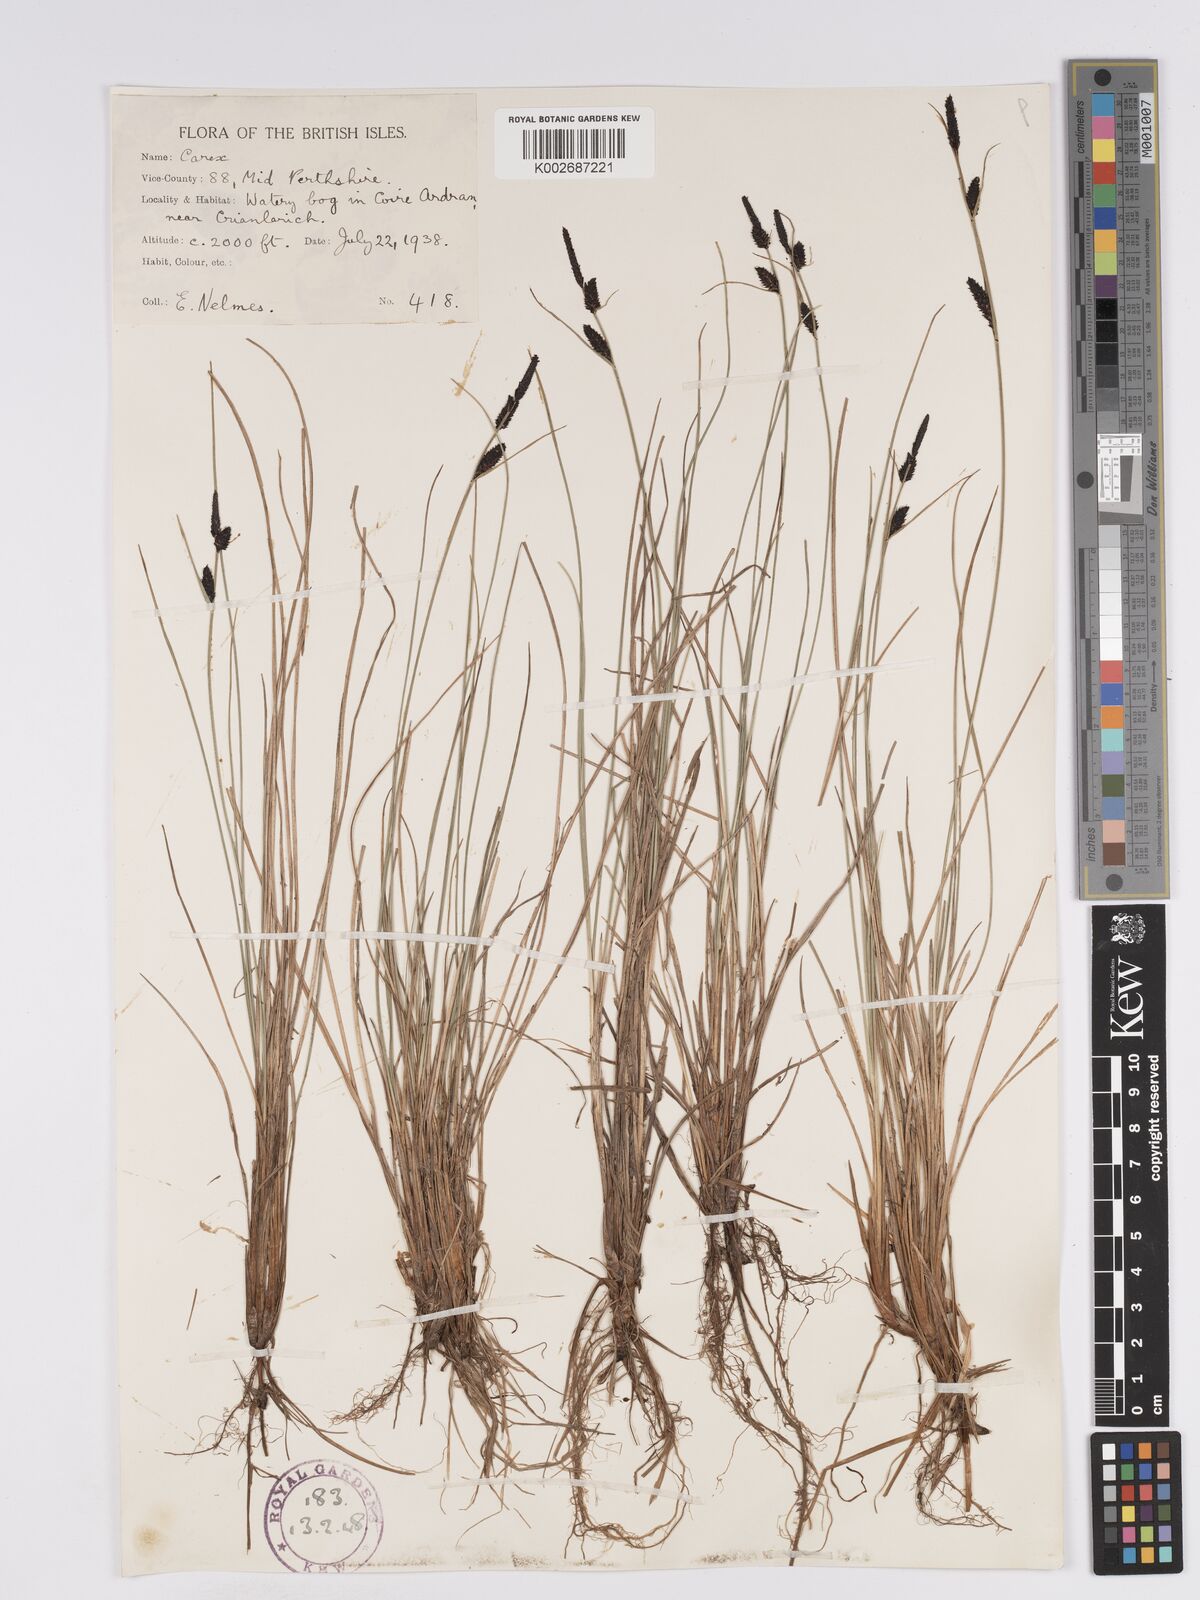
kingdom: Plantae
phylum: Tracheophyta
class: Liliopsida
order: Poales
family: Cyperaceae
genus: Carex
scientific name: Carex nigra
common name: Common sedge
